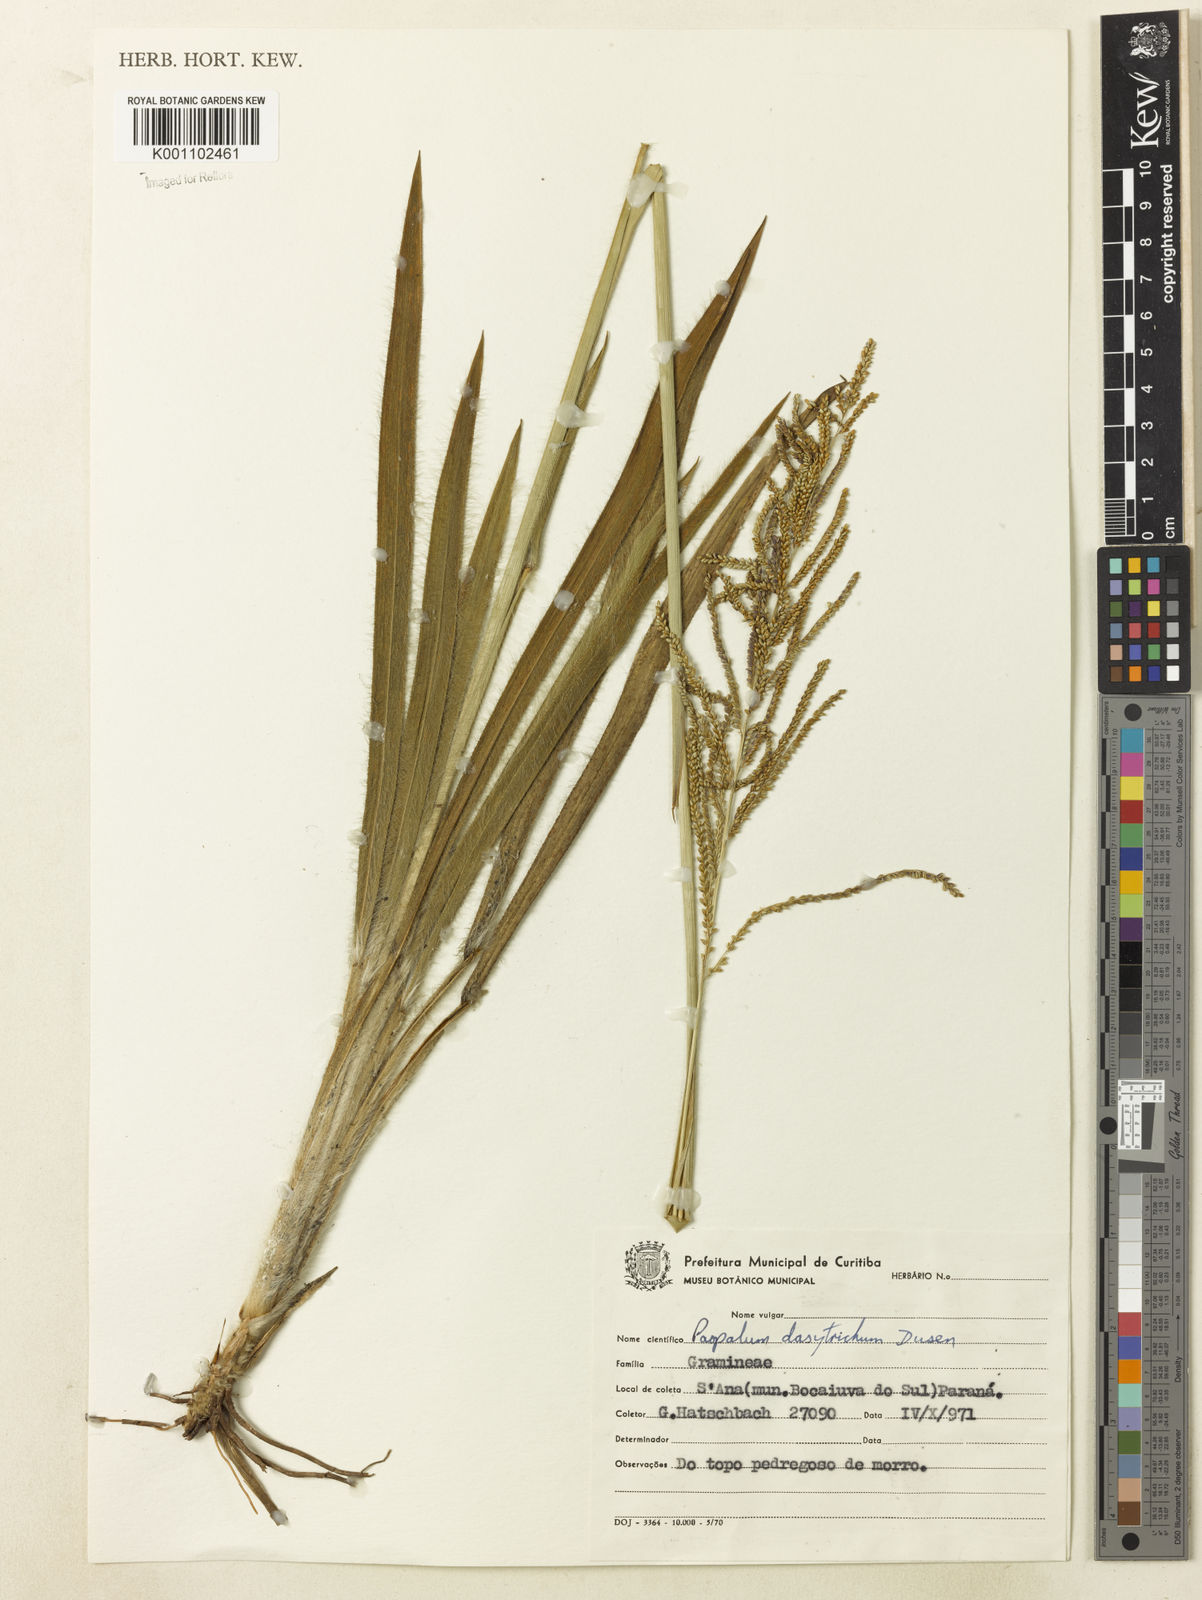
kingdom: Plantae
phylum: Tracheophyta
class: Liliopsida
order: Poales
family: Poaceae
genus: Paspalum
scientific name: Paspalum
